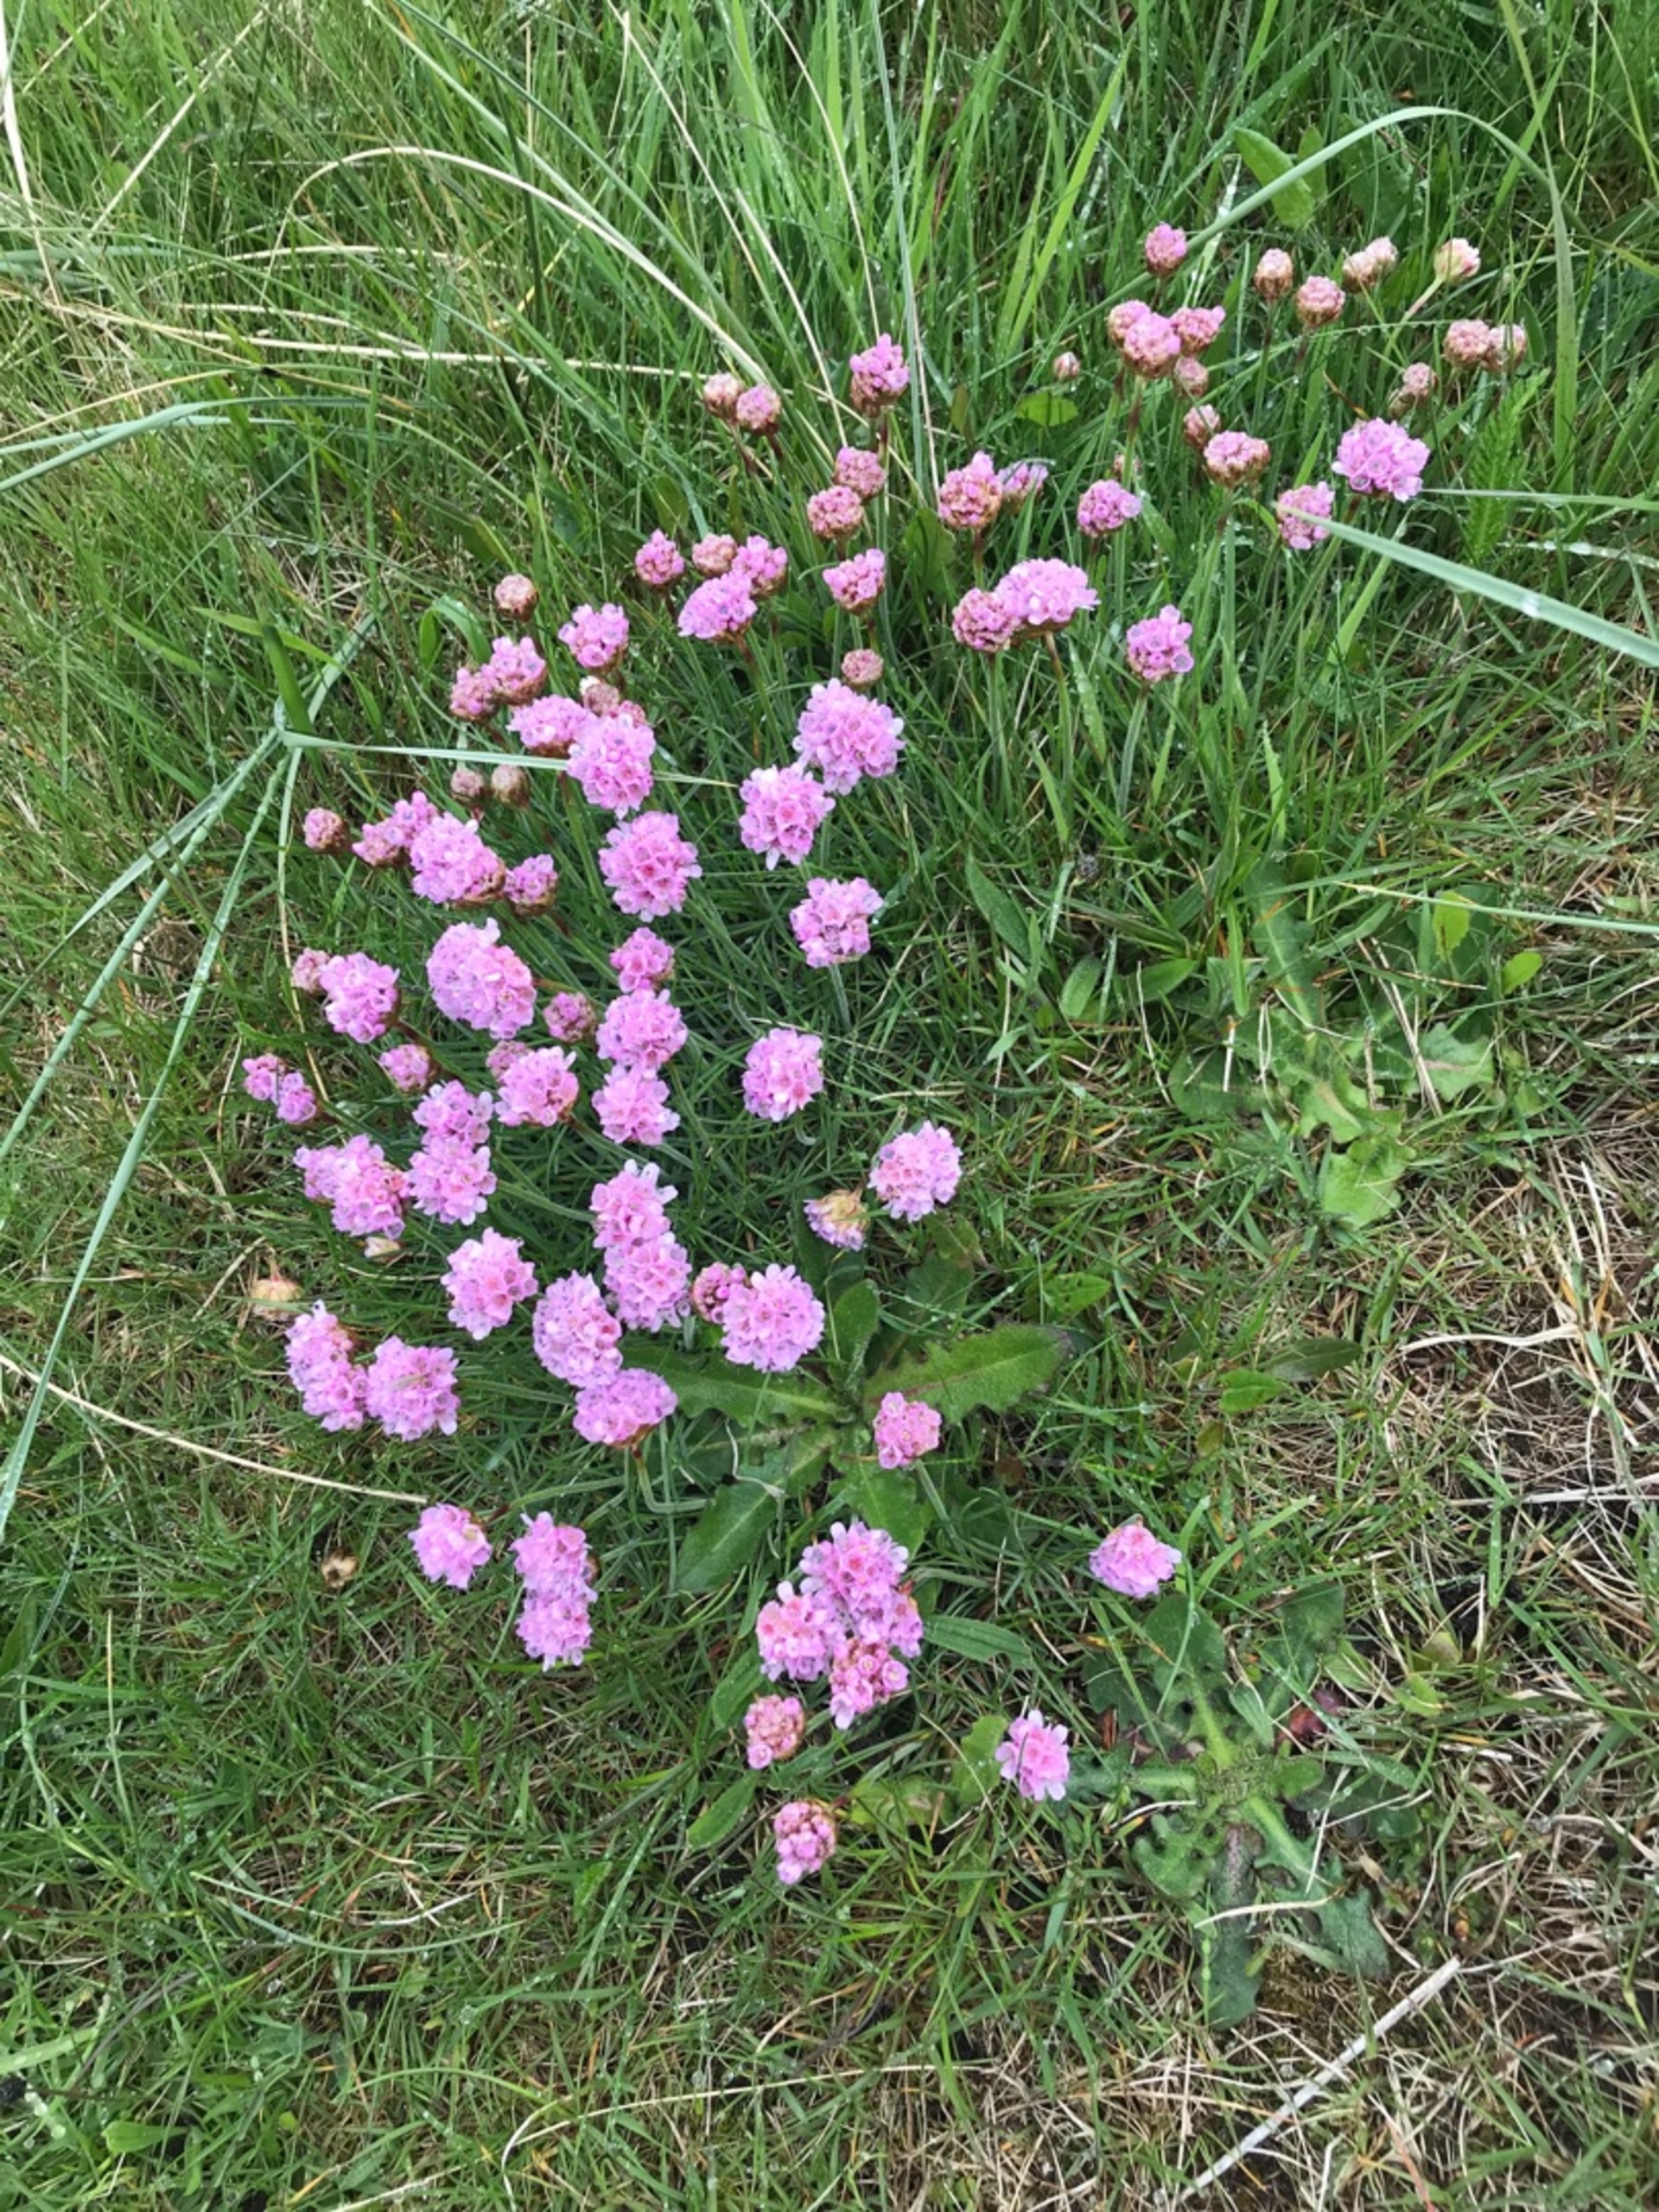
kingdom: Plantae
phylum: Tracheophyta
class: Magnoliopsida
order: Caryophyllales
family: Plumbaginaceae
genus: Armeria
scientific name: Armeria maritima
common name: Engelskgræs
